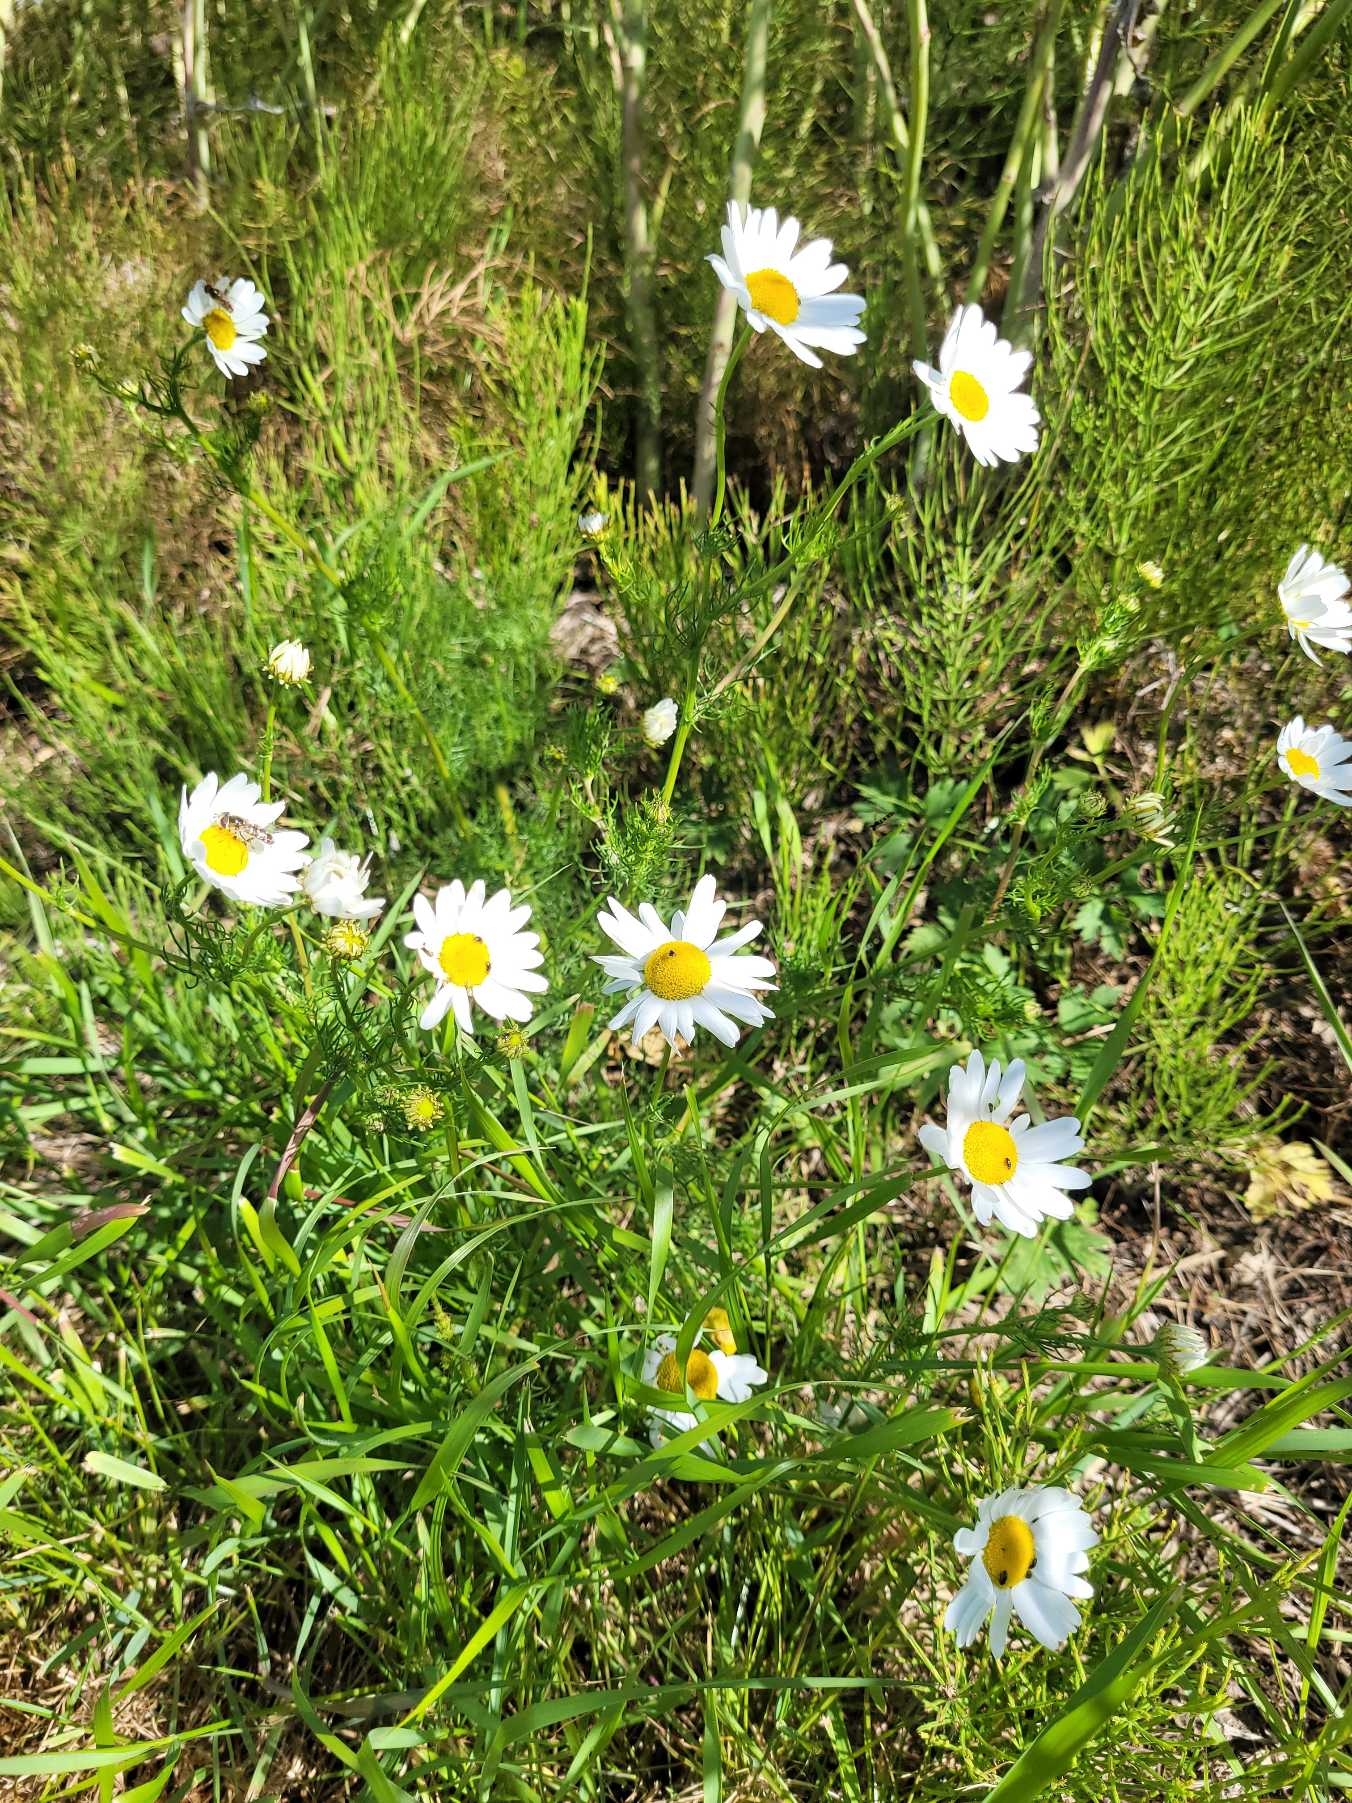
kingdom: Plantae
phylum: Tracheophyta
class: Magnoliopsida
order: Asterales
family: Asteraceae
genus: Tripleurospermum
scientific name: Tripleurospermum inodorum
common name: Lugtløs kamille
